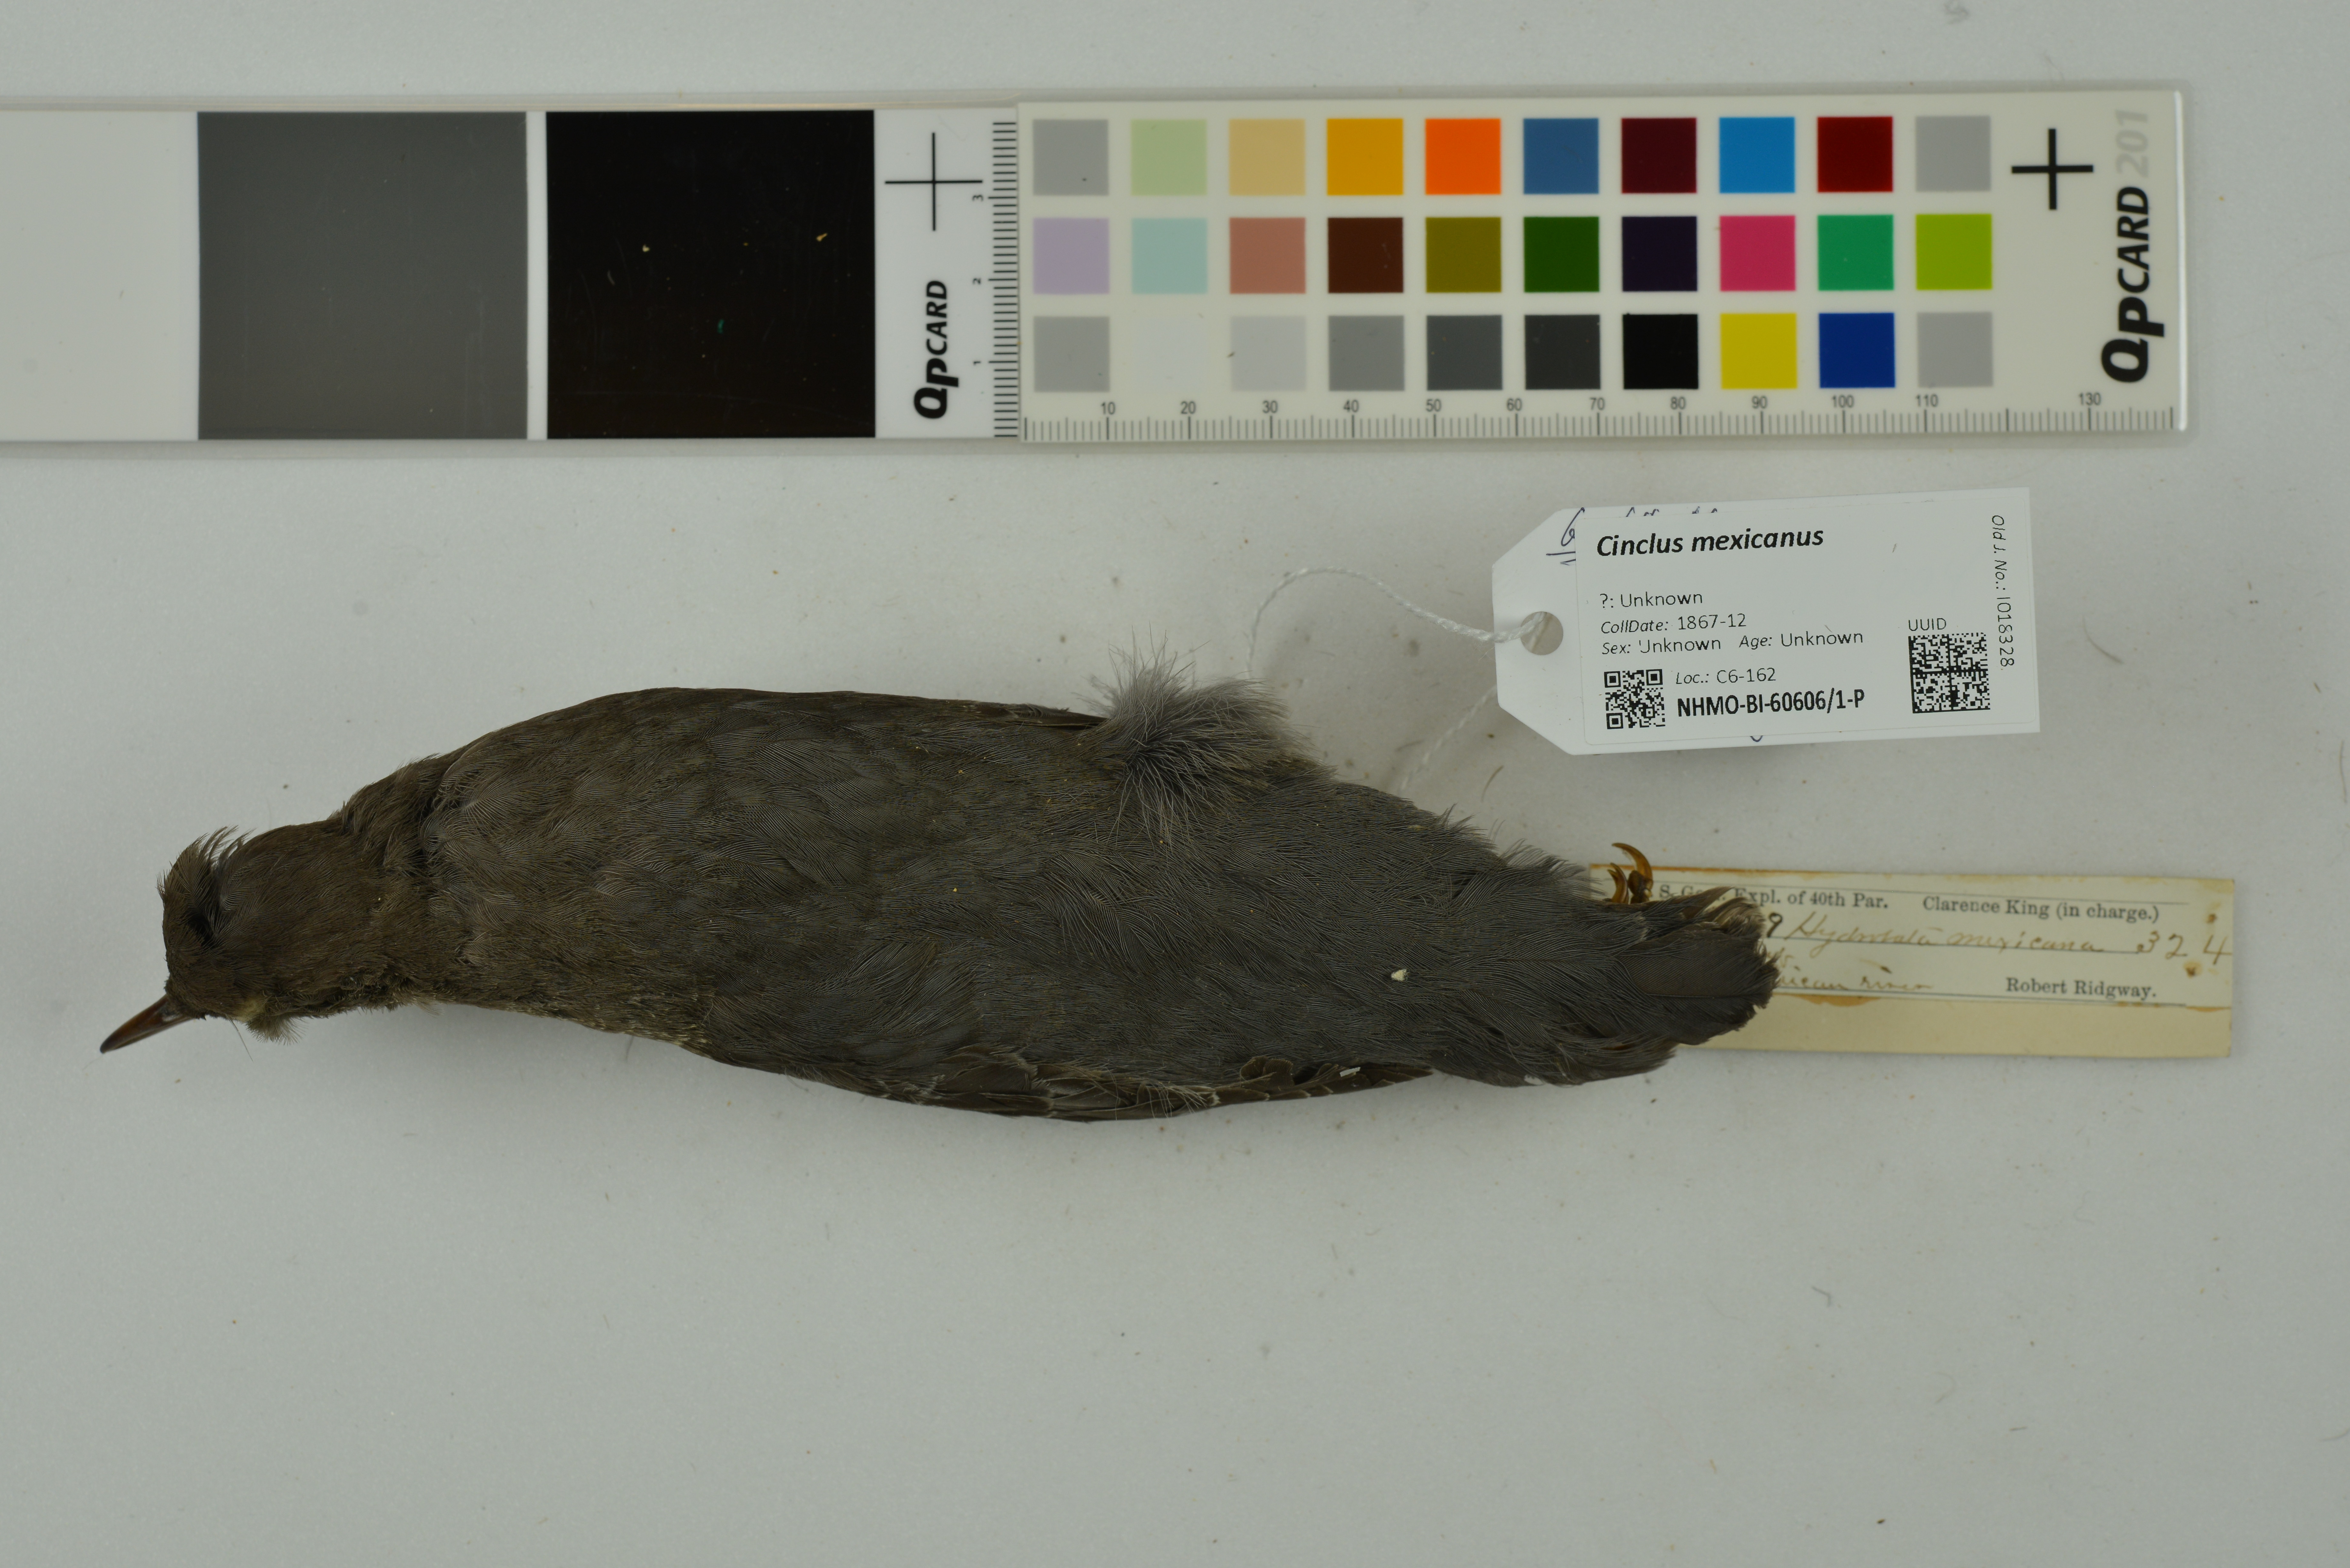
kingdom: Animalia
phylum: Chordata
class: Aves
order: Passeriformes
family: Cinclidae
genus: Cinclus
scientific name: Cinclus mexicanus
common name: American dipper
